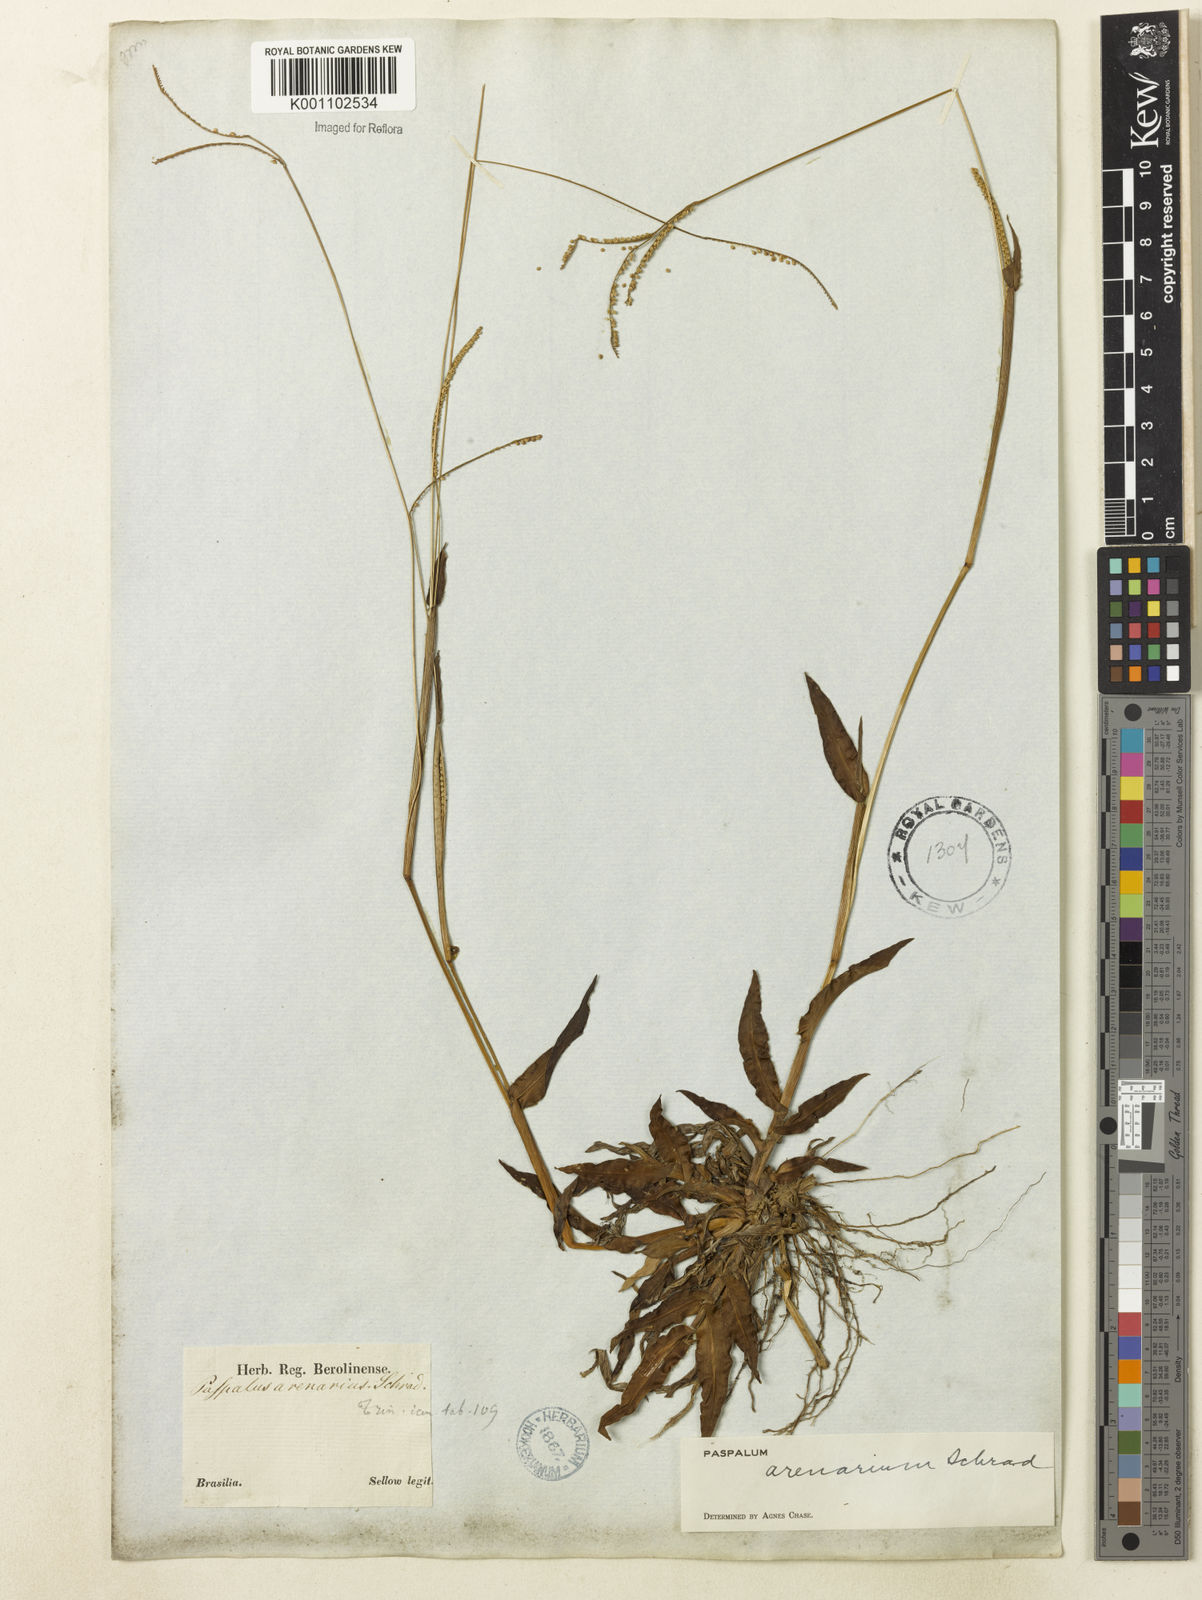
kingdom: Plantae
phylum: Tracheophyta
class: Liliopsida
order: Poales
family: Poaceae
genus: Paspalum
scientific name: Paspalum arenarium
